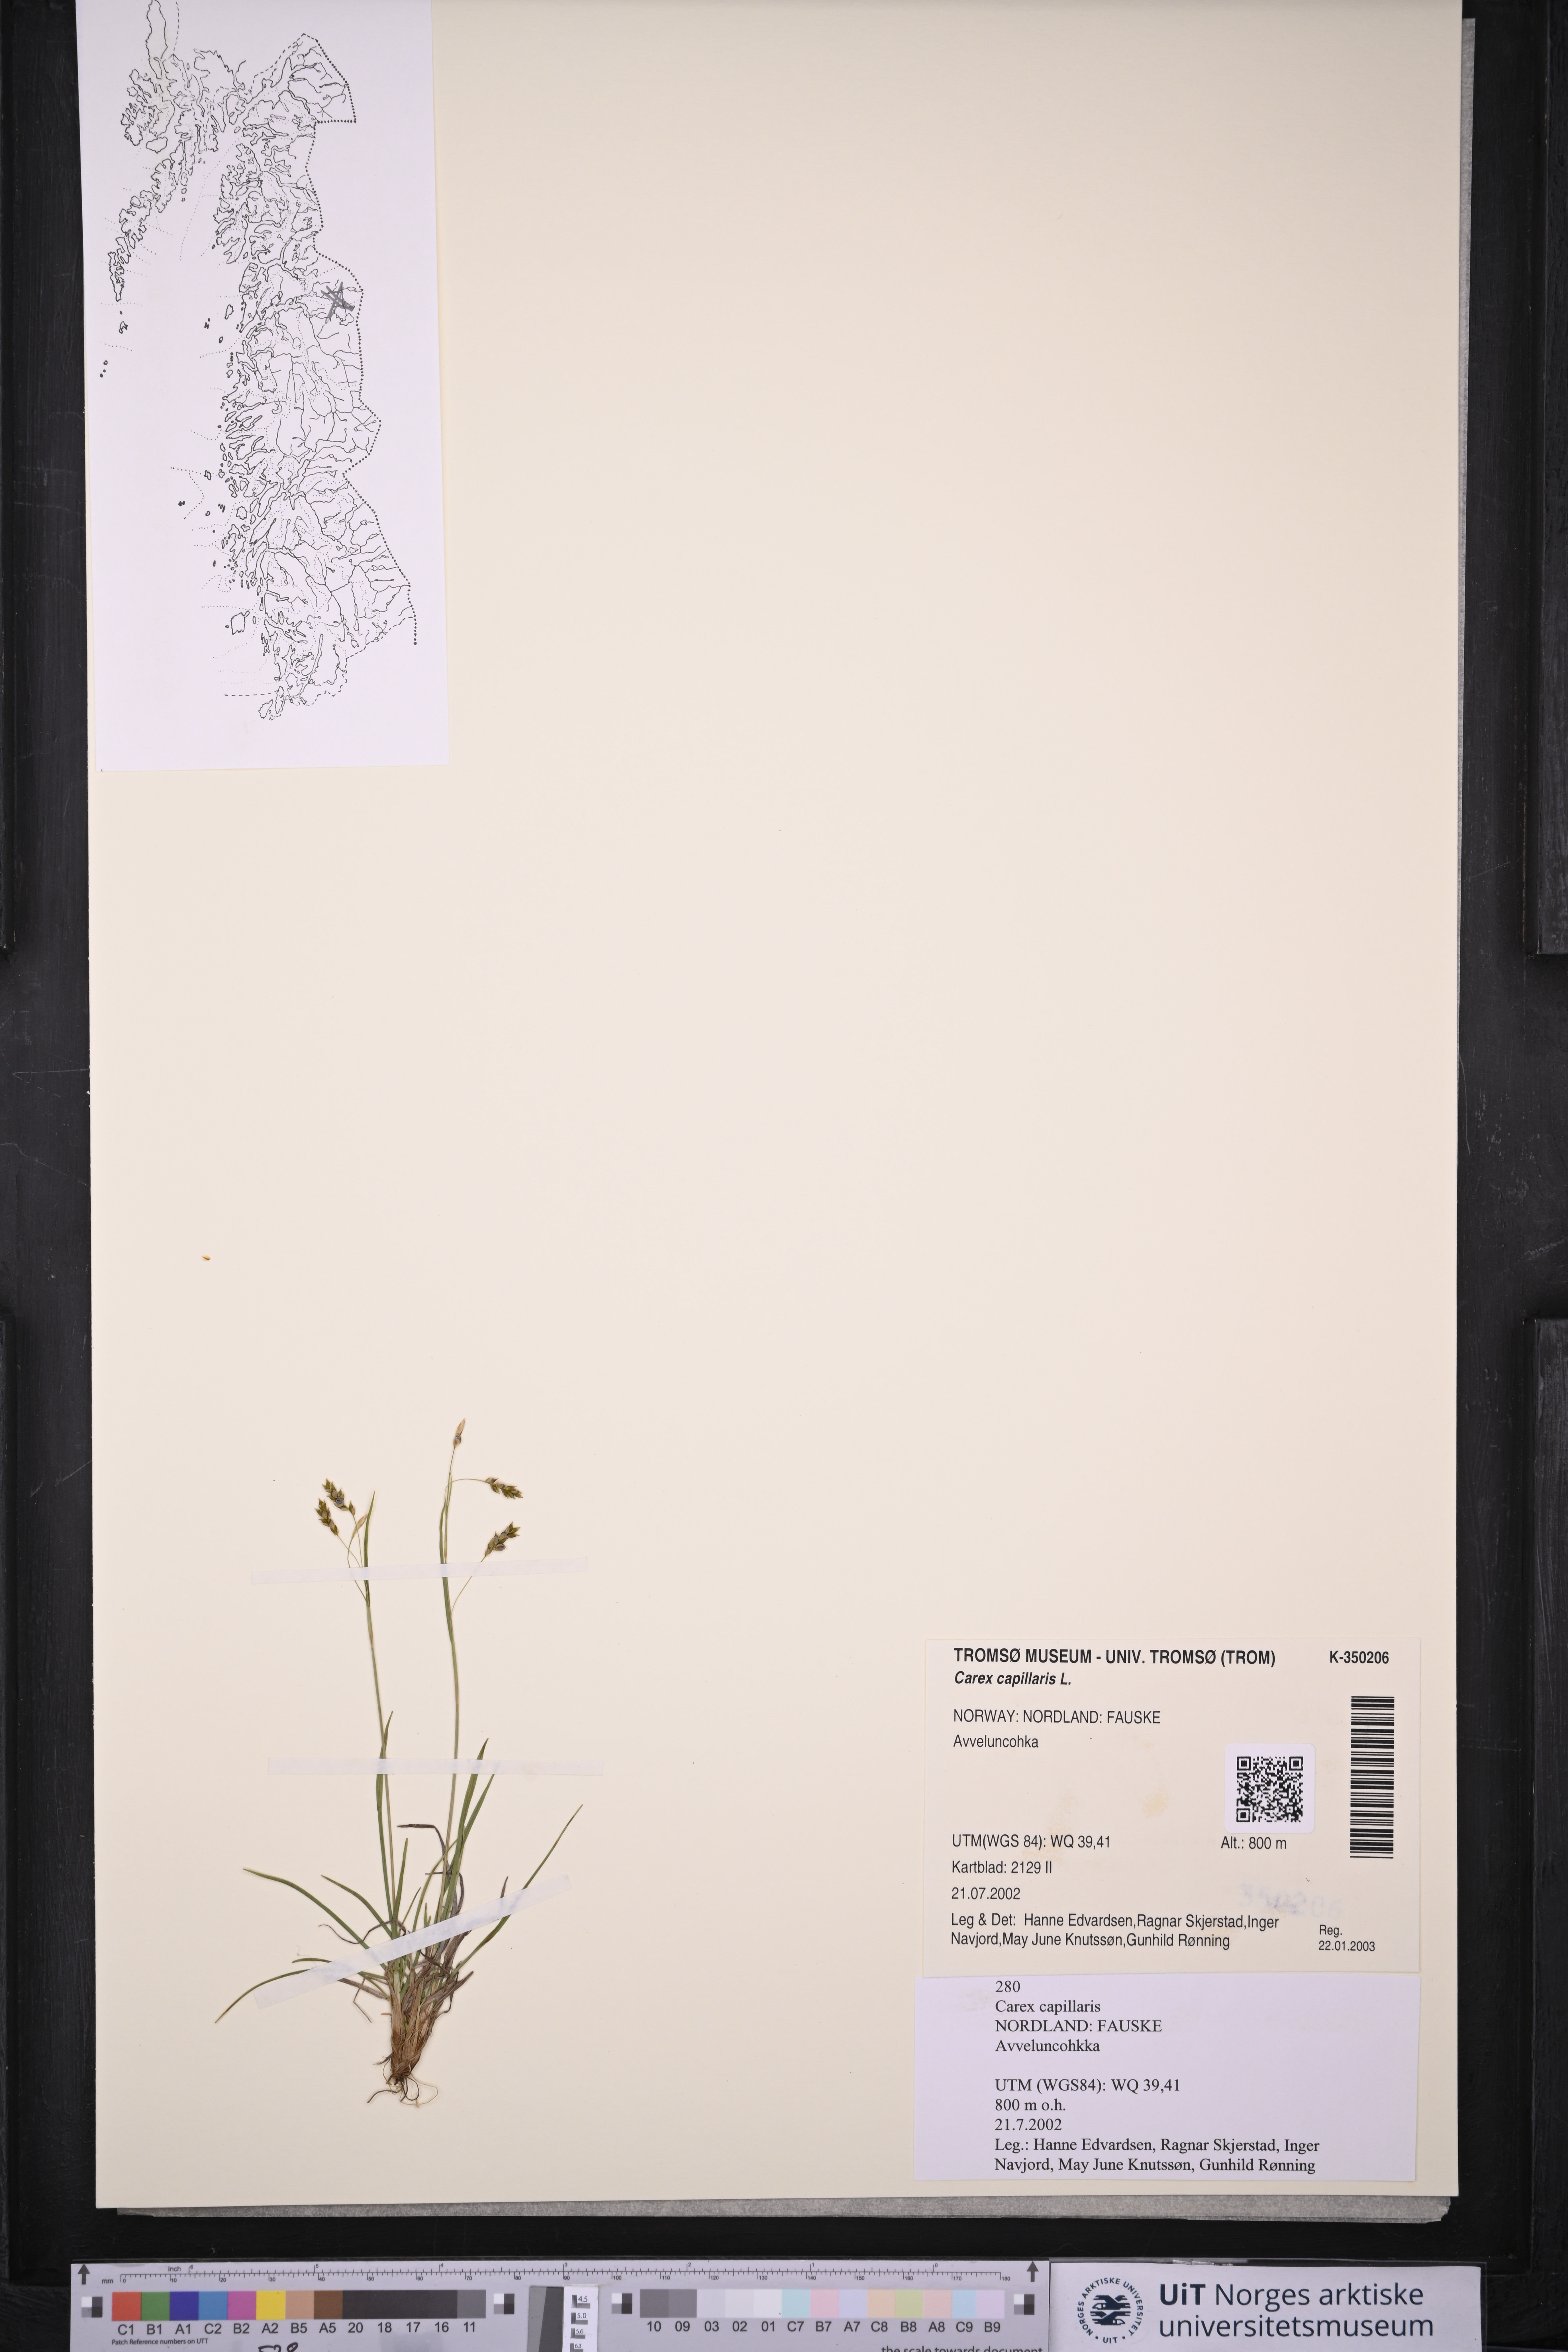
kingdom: Plantae
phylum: Tracheophyta
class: Liliopsida
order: Poales
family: Cyperaceae
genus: Carex
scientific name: Carex capillaris
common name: Hair sedge
